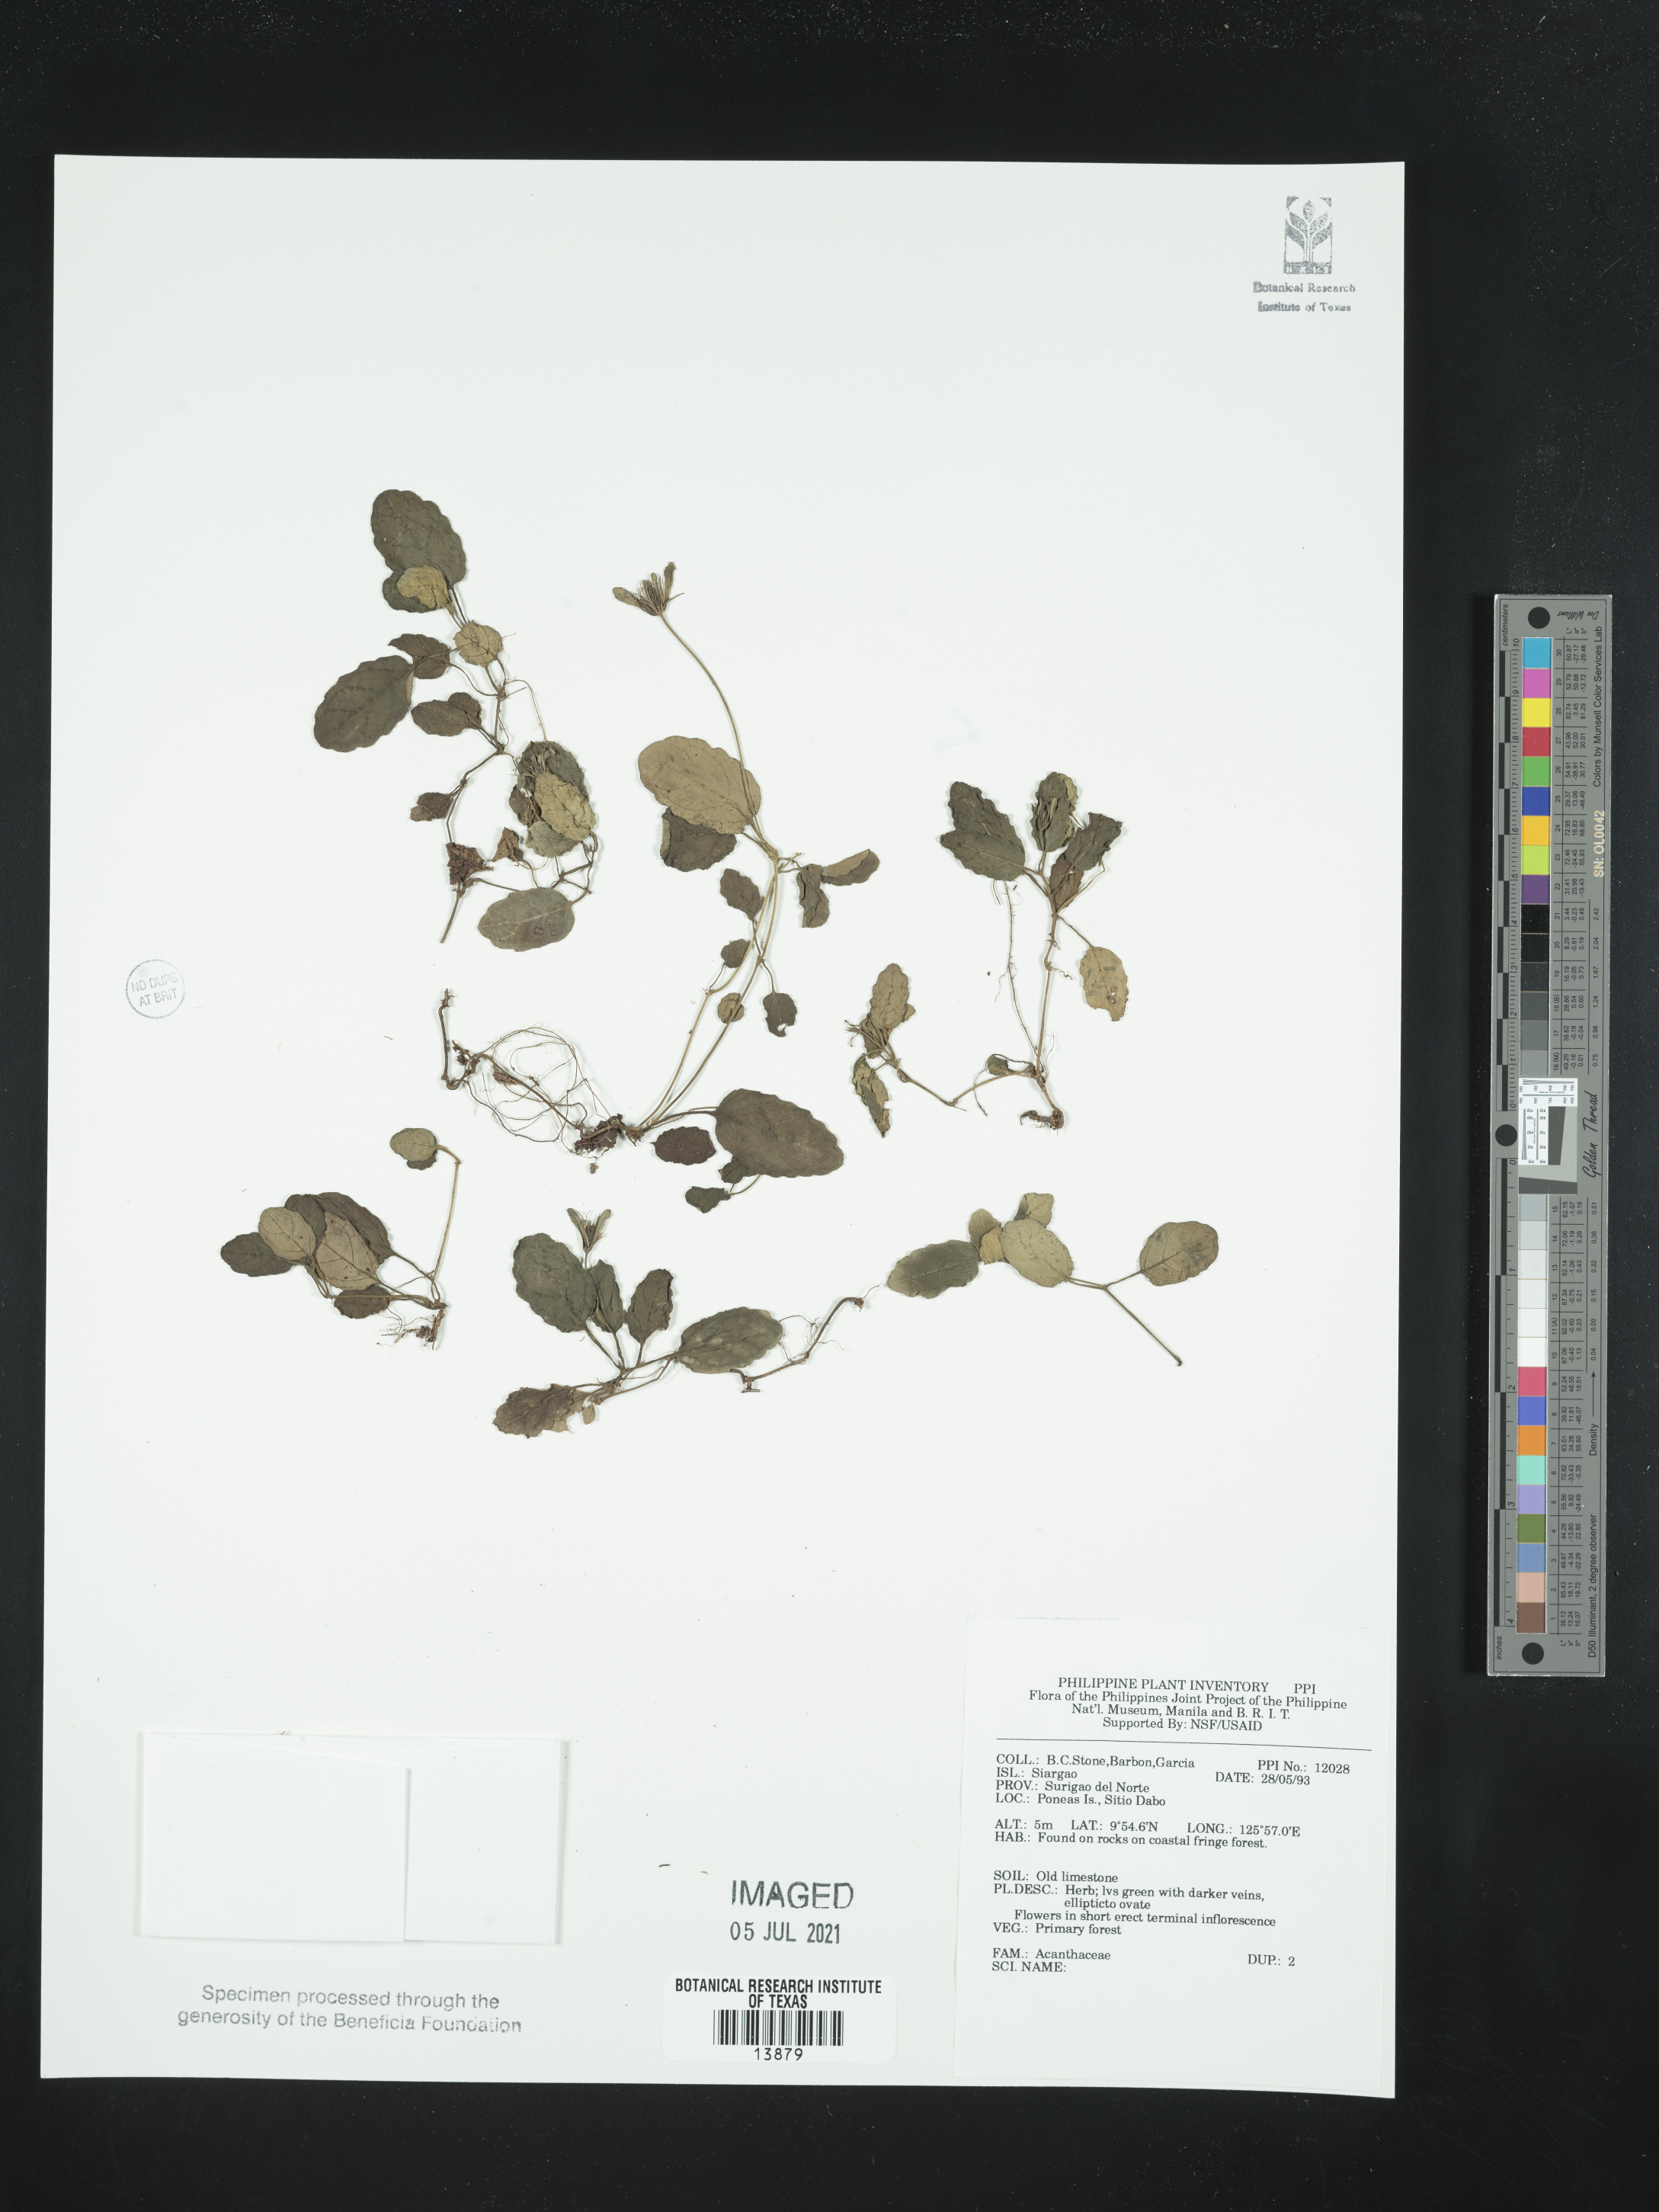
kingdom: Plantae
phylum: Tracheophyta
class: Magnoliopsida
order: Lamiales
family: Acanthaceae
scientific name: Acanthaceae
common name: Acanthaceae
